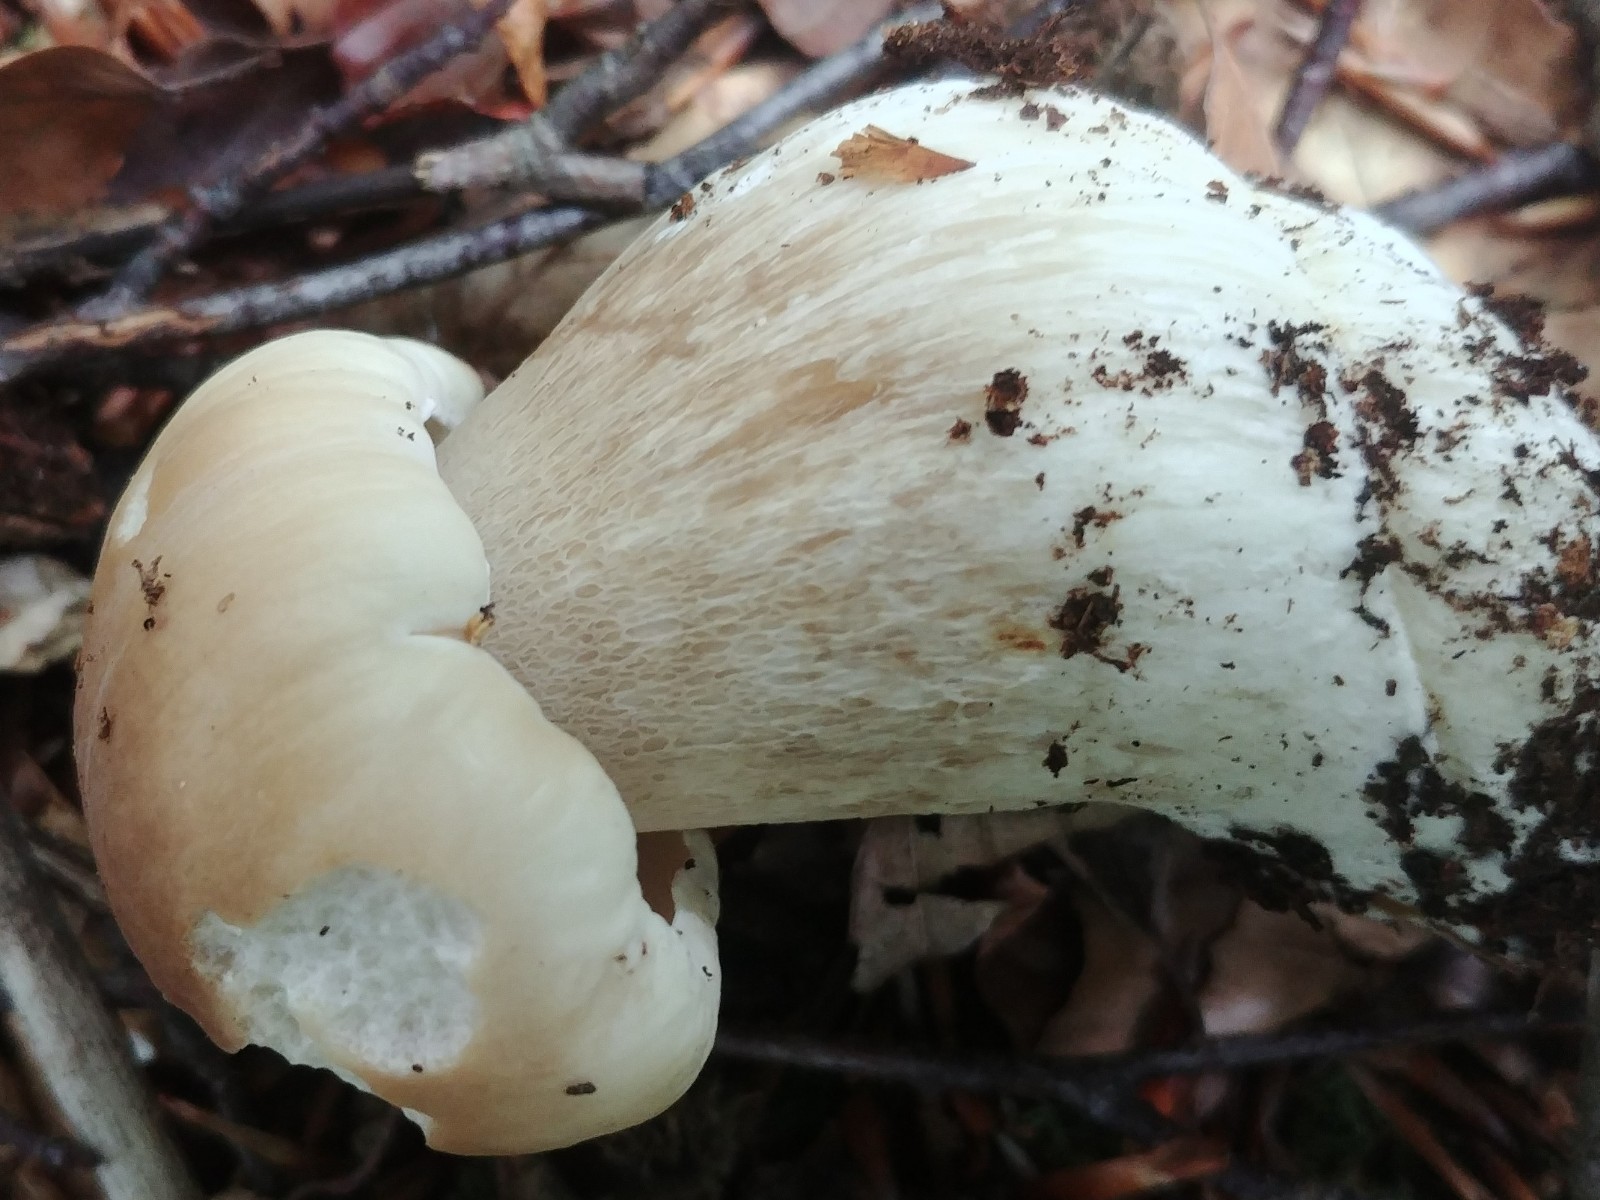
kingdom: Fungi
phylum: Basidiomycota
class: Agaricomycetes
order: Boletales
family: Boletaceae
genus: Boletus
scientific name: Boletus edulis
